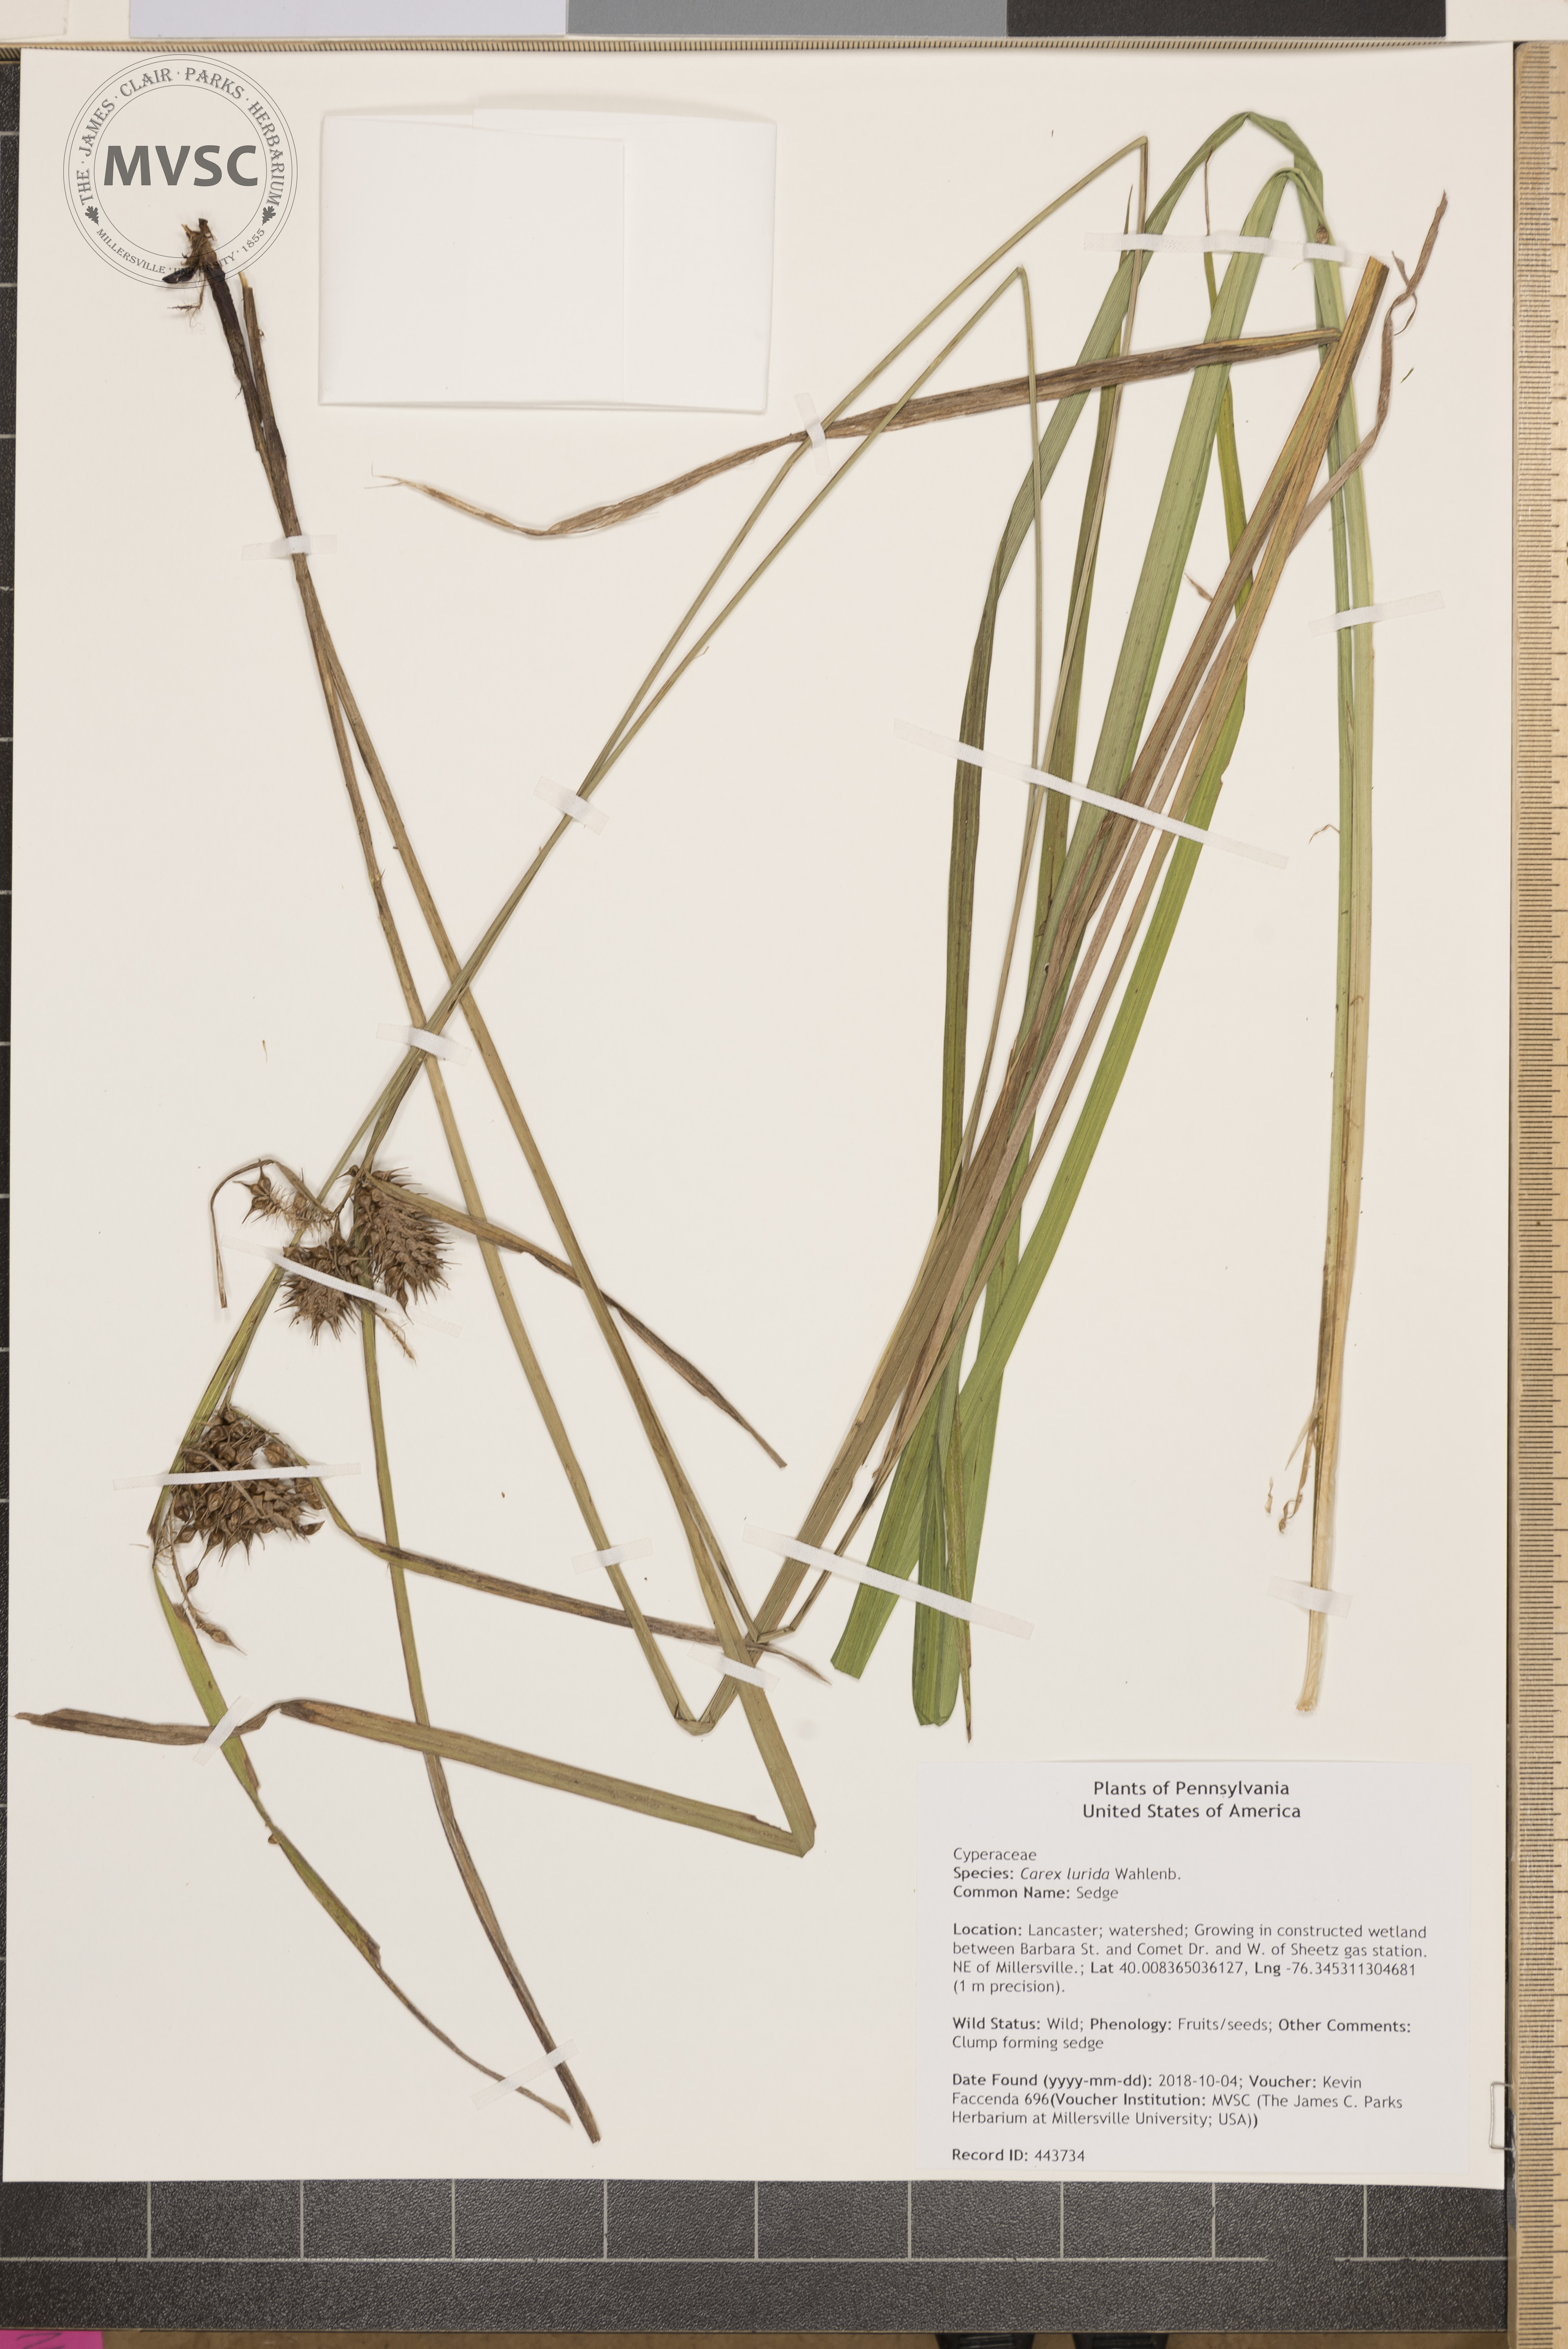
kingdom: Plantae
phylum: Tracheophyta
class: Liliopsida
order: Poales
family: Cyperaceae
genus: Carex
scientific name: Carex lurida
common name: Sedge
